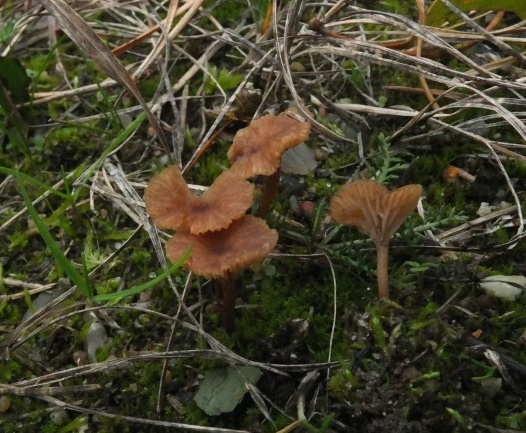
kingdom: Fungi
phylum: Basidiomycota
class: Agaricomycetes
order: Agaricales
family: Tricholomataceae
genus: Omphalina
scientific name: Omphalina pyxidata
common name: rødbrun navlehat
